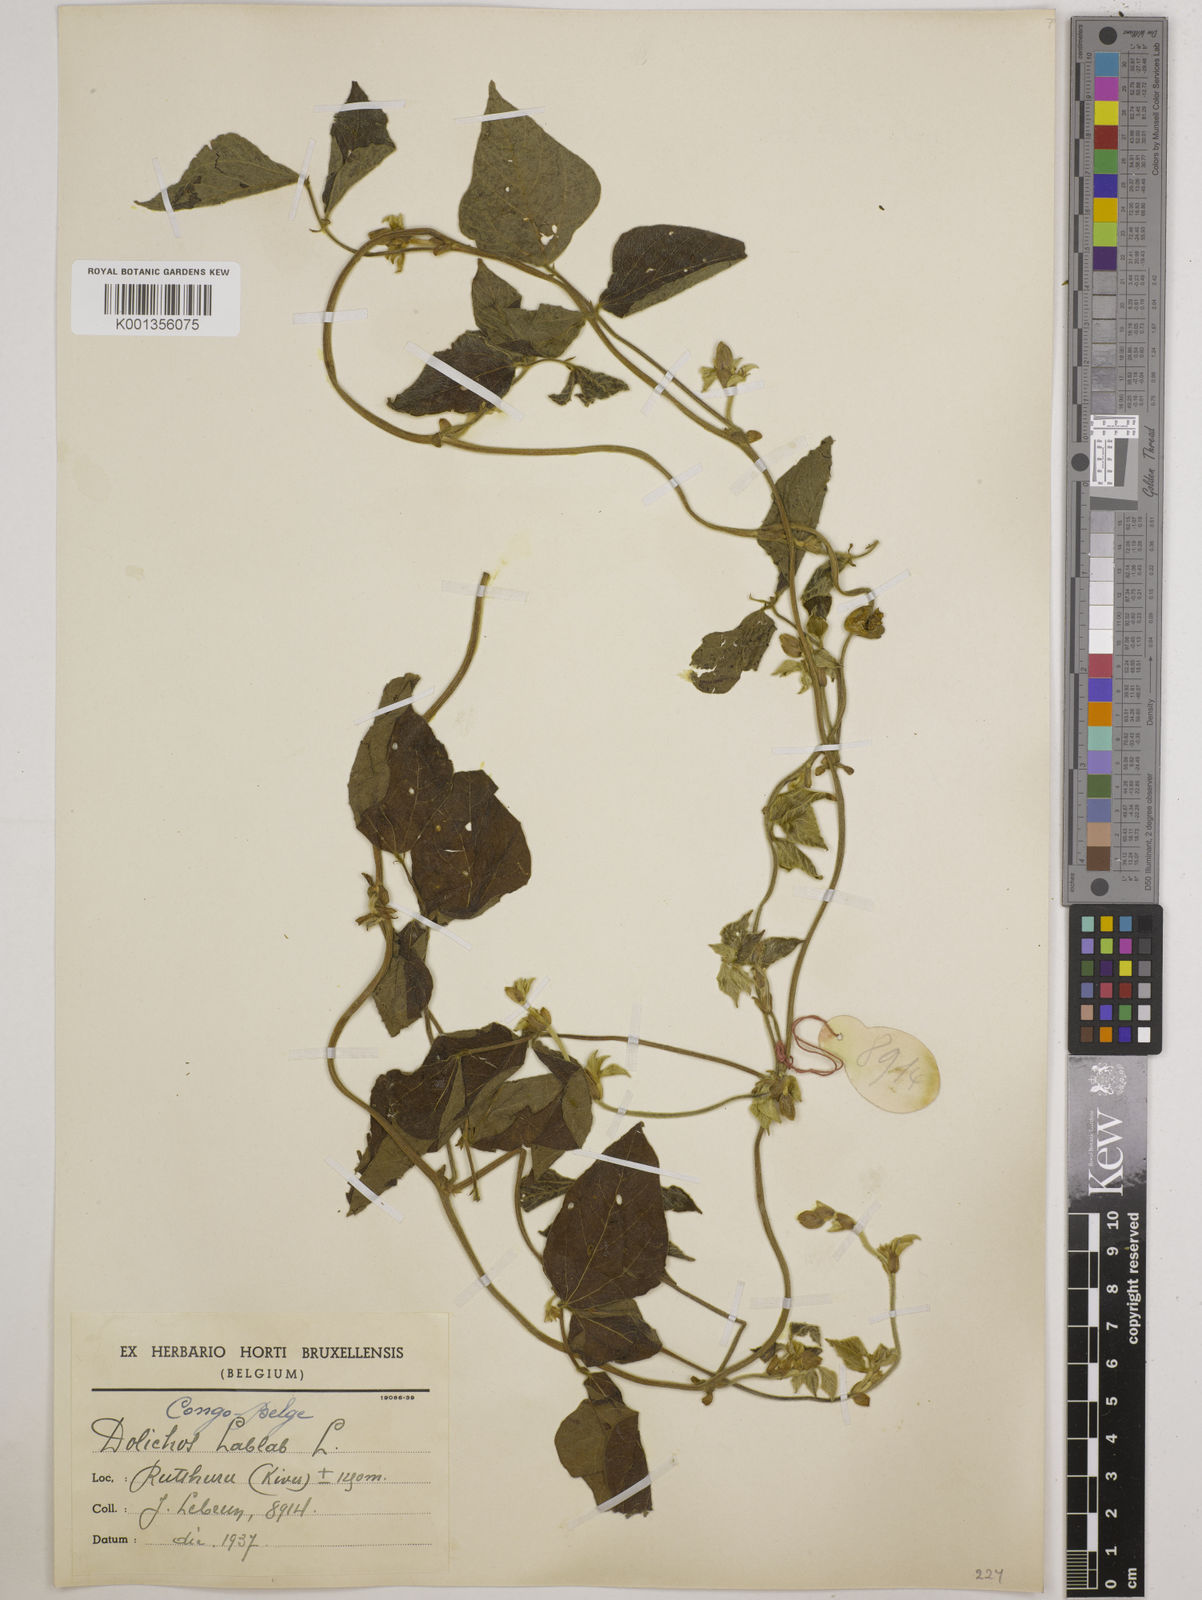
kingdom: Plantae
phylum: Tracheophyta
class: Magnoliopsida
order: Fabales
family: Fabaceae
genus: Lablab
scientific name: Lablab purpureus
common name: Lablab-bean
